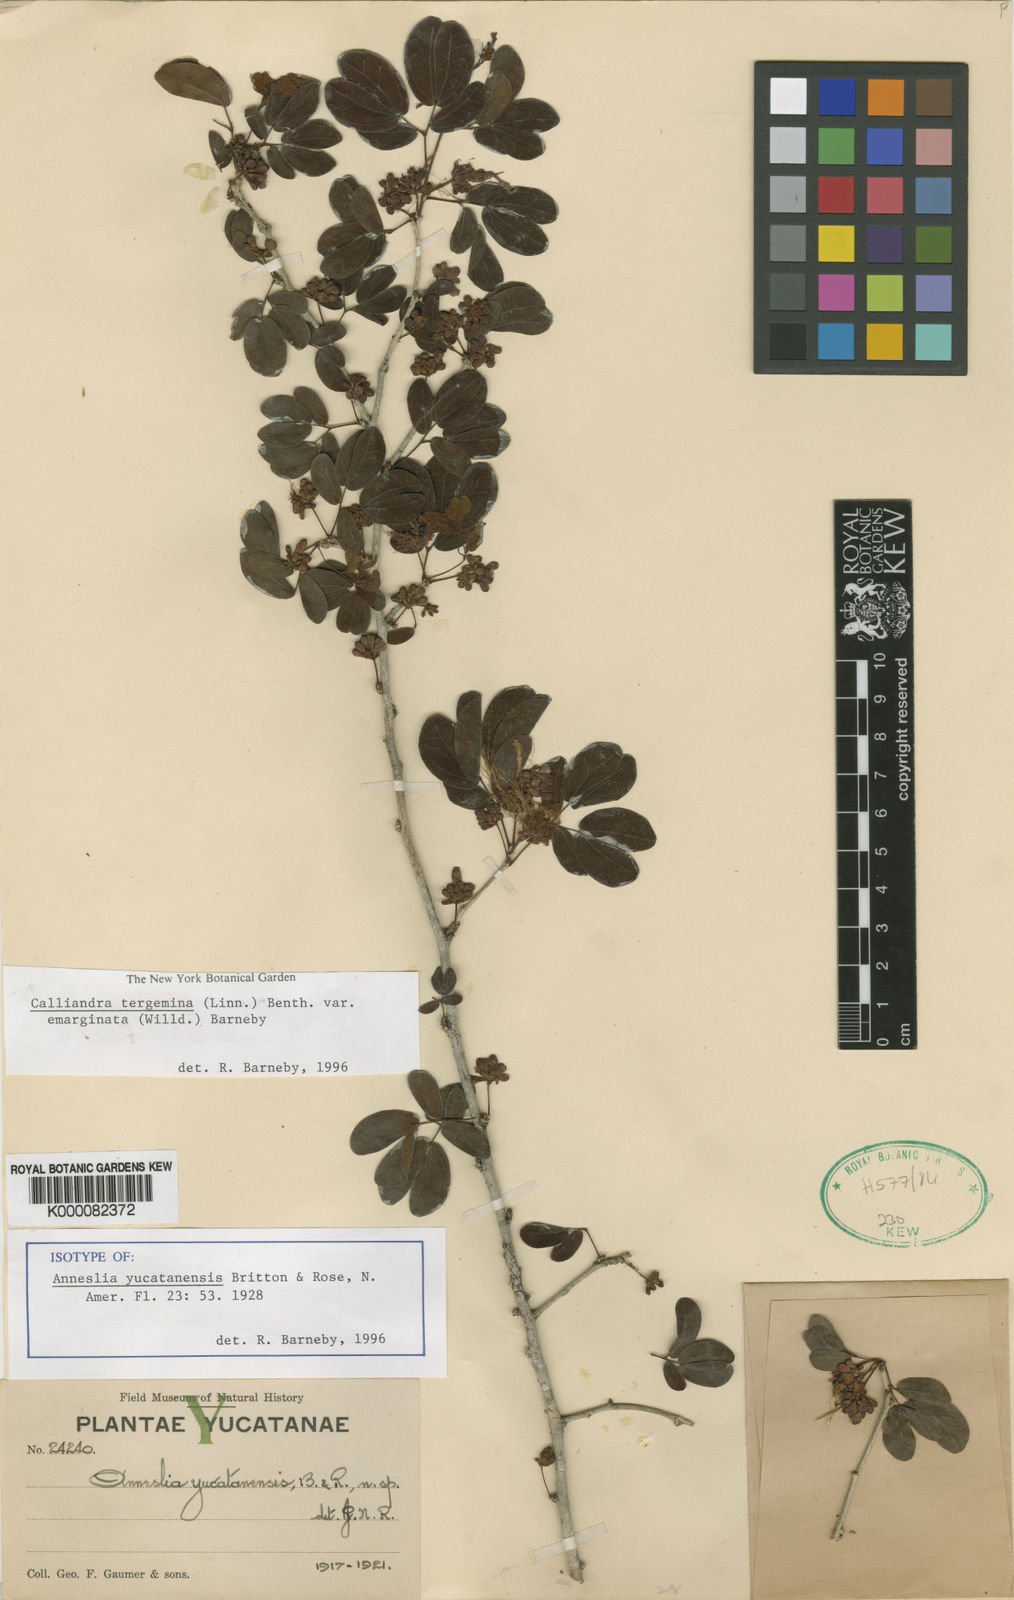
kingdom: Plantae
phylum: Tracheophyta
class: Magnoliopsida
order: Fabales
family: Fabaceae
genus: Calliandra
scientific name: Calliandra tergemina
